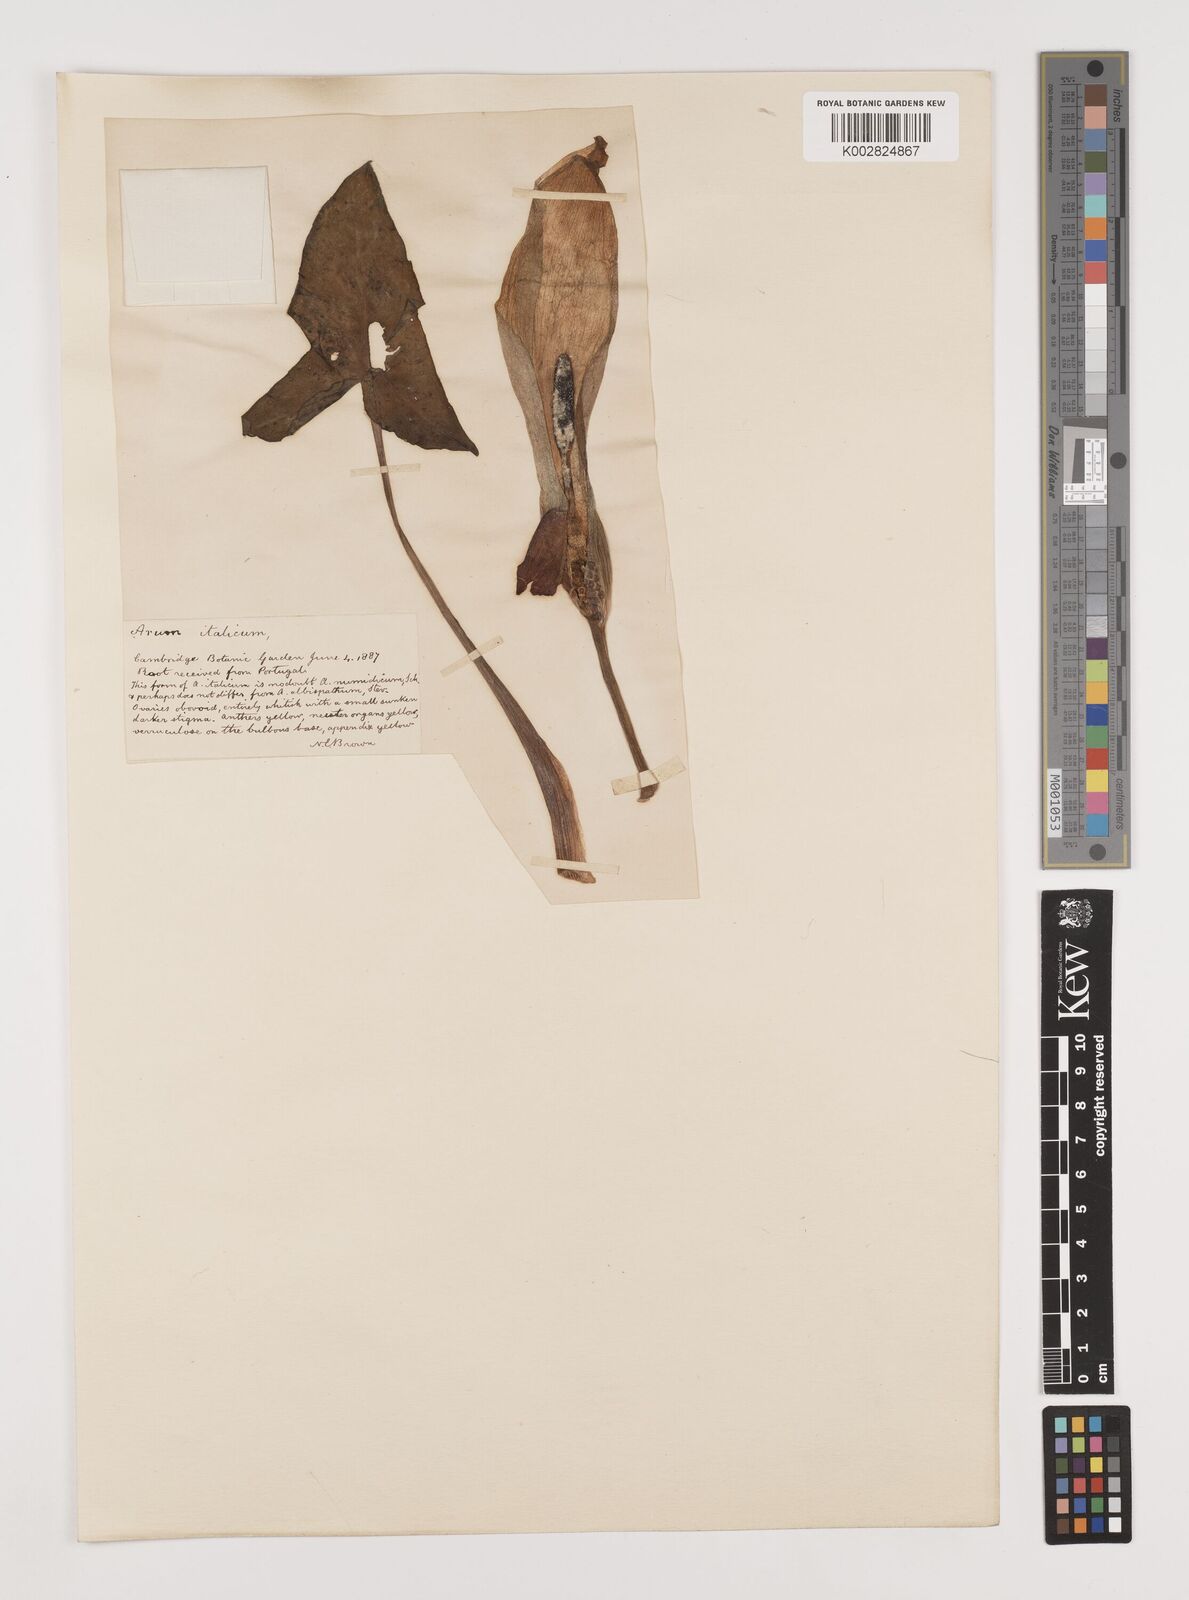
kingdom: Plantae
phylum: Tracheophyta
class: Liliopsida
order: Alismatales
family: Araceae
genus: Arum
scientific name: Arum italicum
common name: Italian lords-and-ladies
